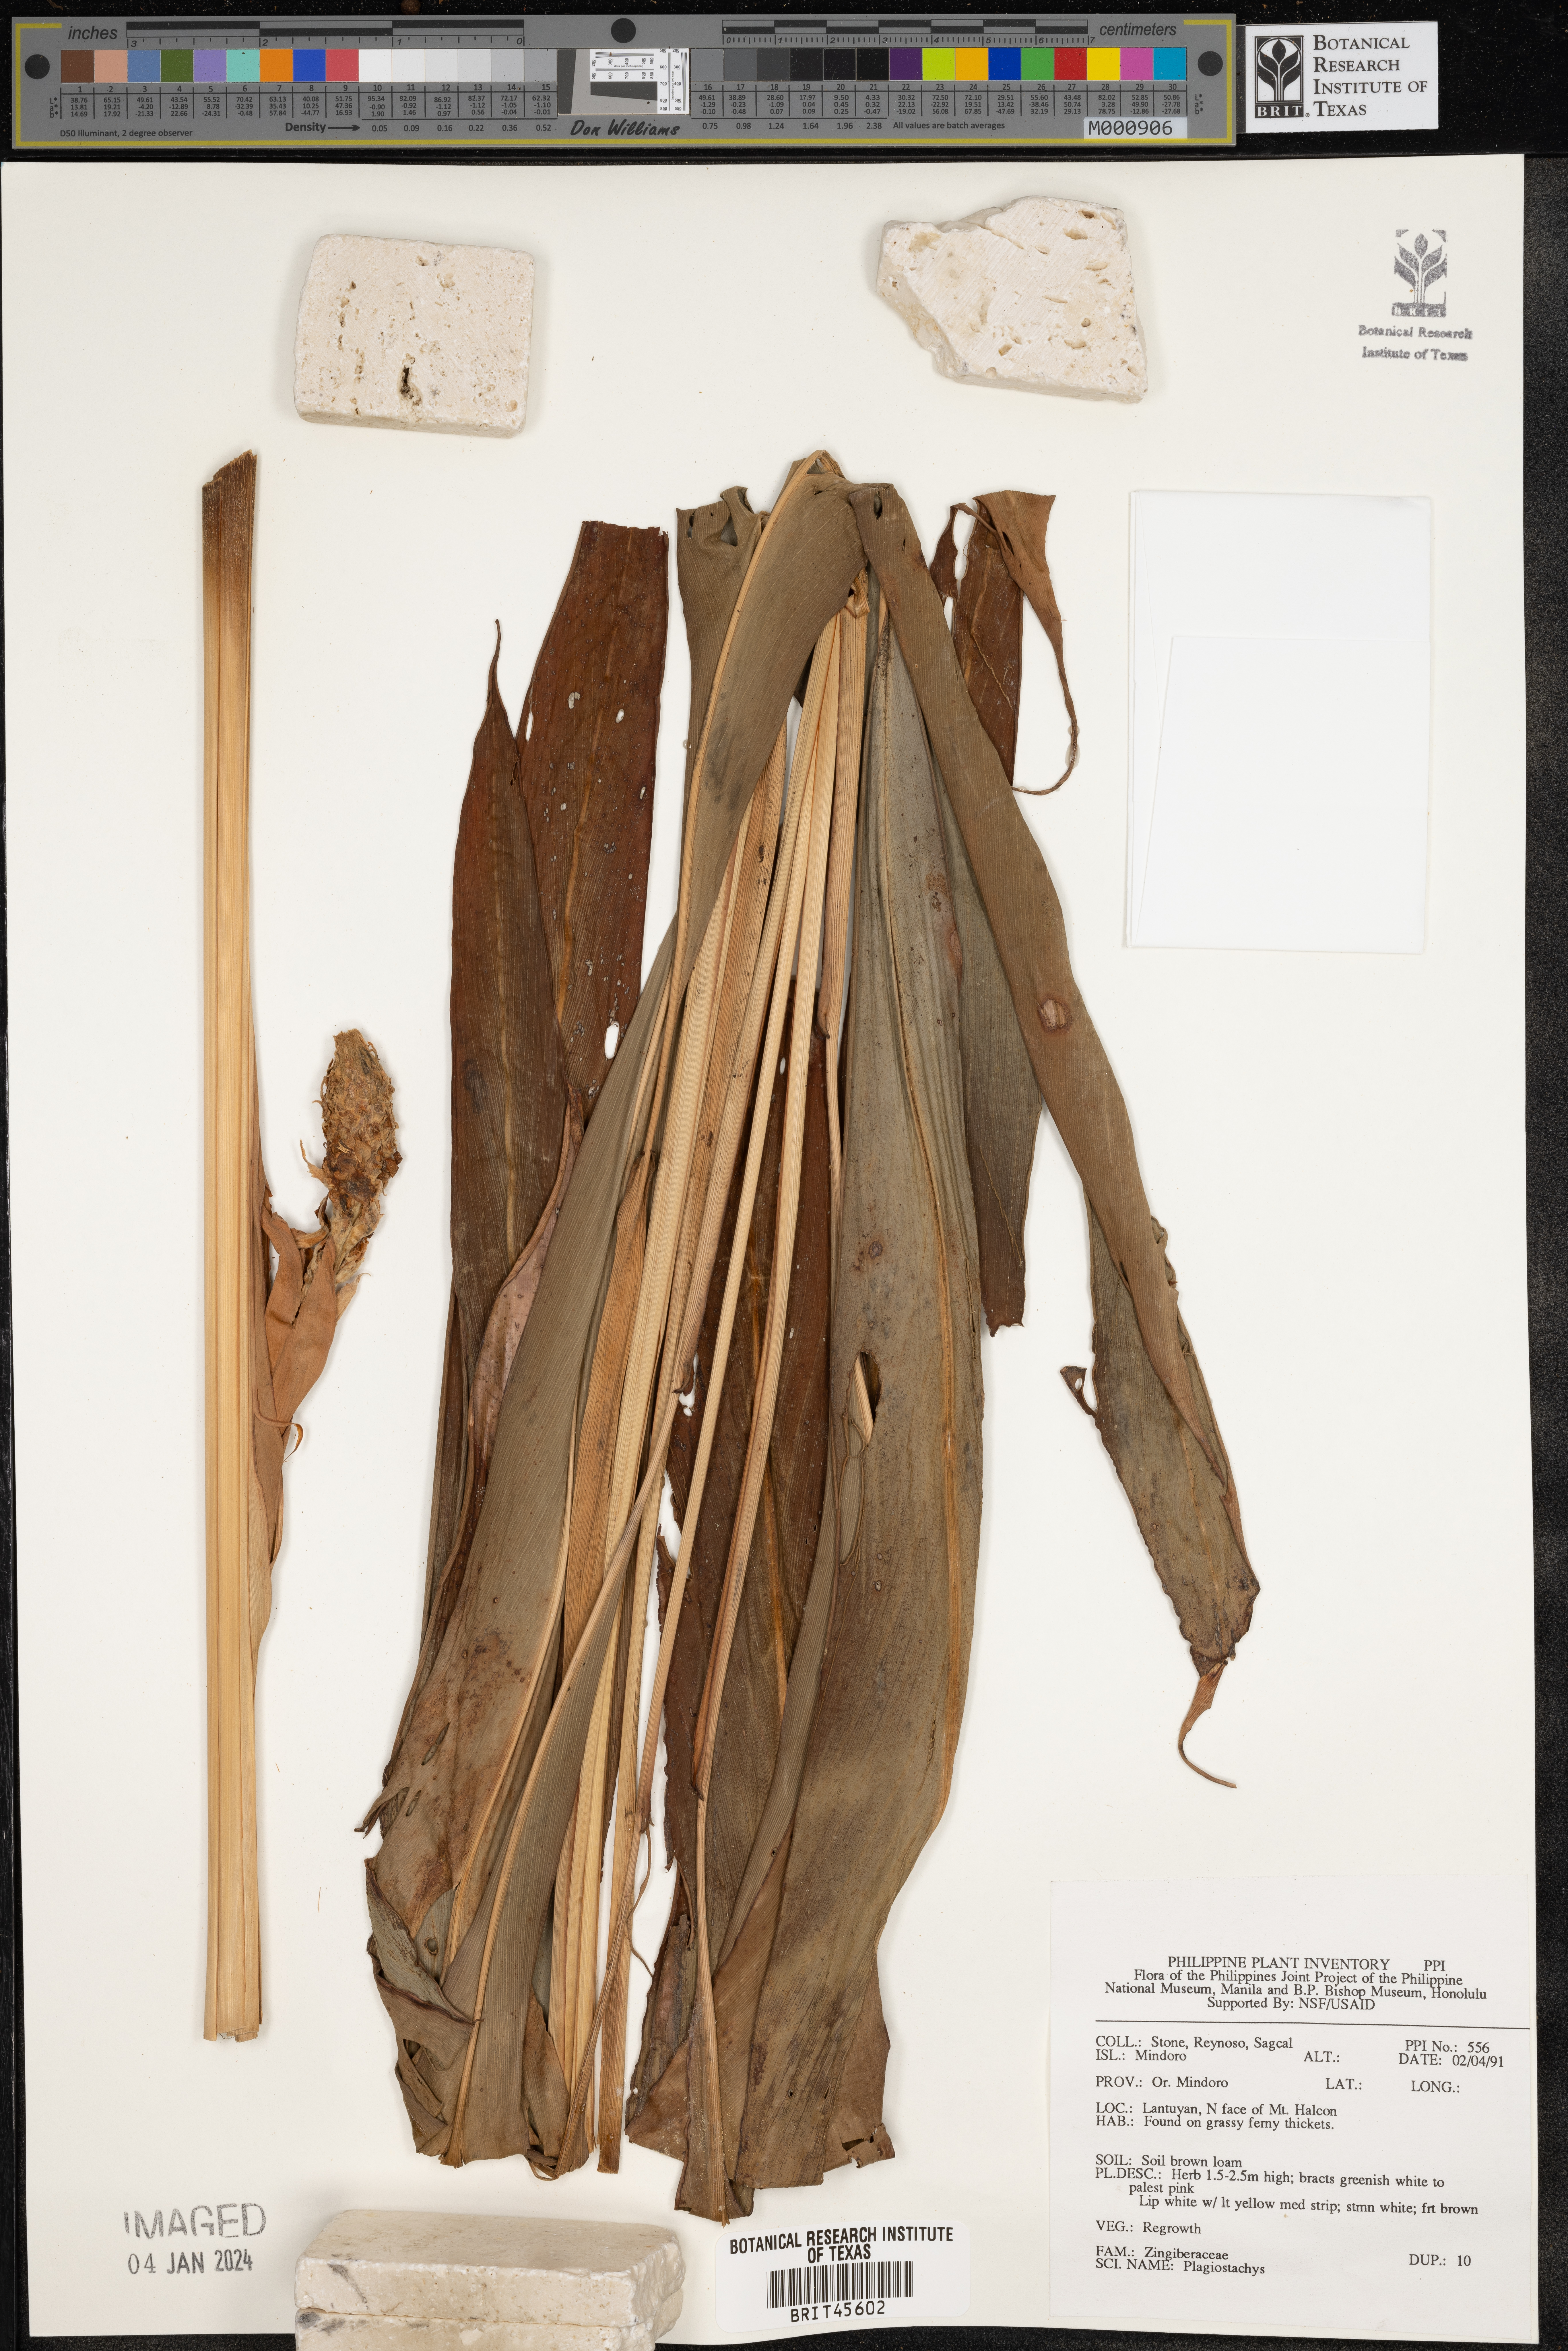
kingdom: Plantae
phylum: Tracheophyta
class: Liliopsida
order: Zingiberales
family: Zingiberaceae
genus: Plagiostachys
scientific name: Plagiostachys
